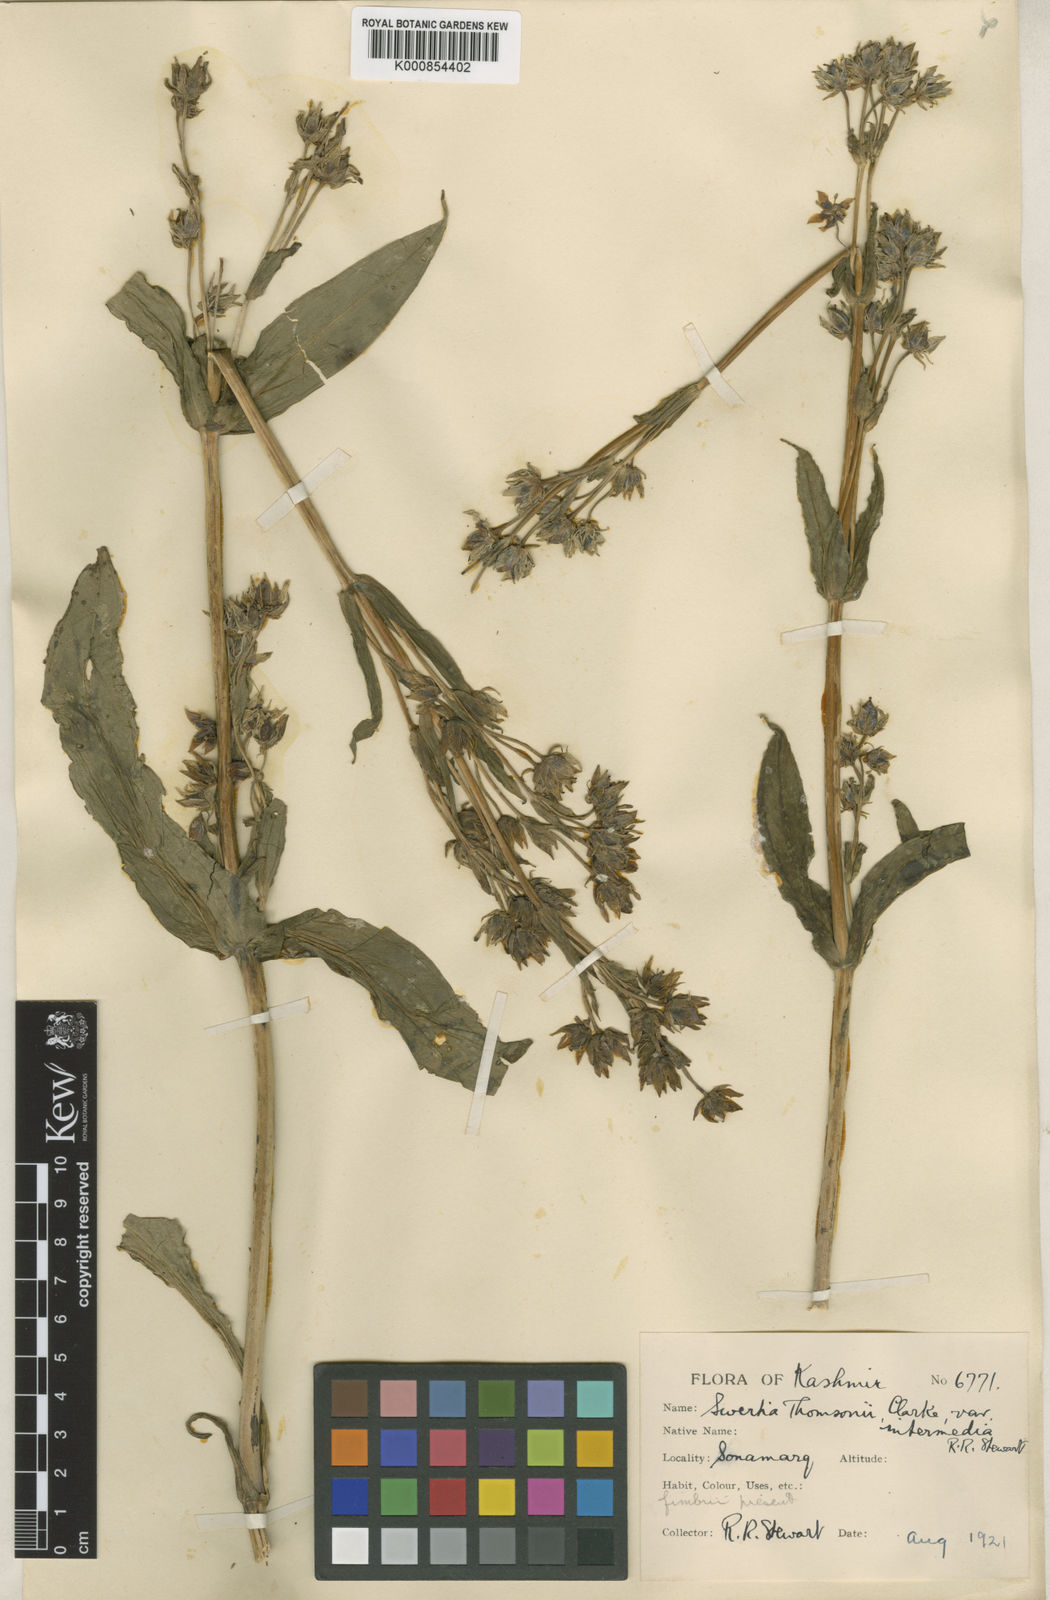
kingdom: Plantae
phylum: Tracheophyta
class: Magnoliopsida
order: Gentianales
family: Gentianaceae
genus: Swertia
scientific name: Swertia thomsonii
